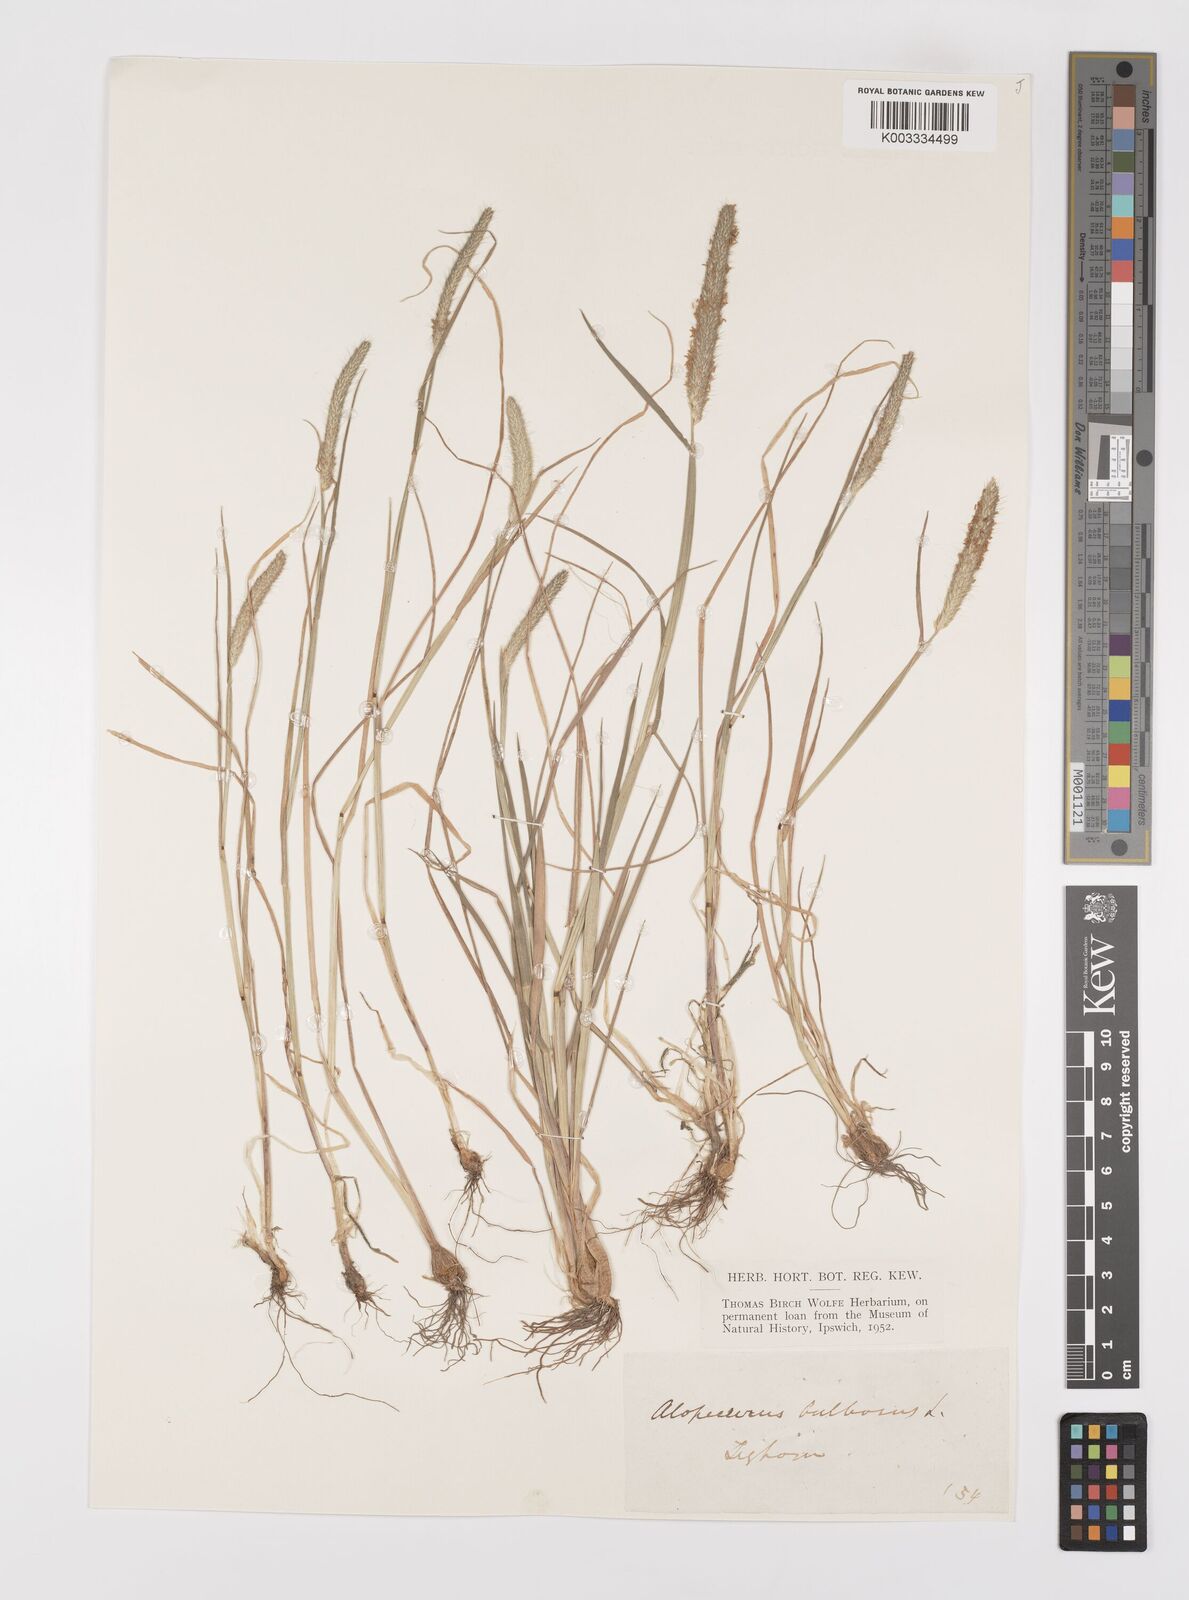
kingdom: Plantae
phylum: Tracheophyta
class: Liliopsida
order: Poales
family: Poaceae
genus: Alopecurus
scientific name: Alopecurus bulbosus
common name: Bulbous foxtail
